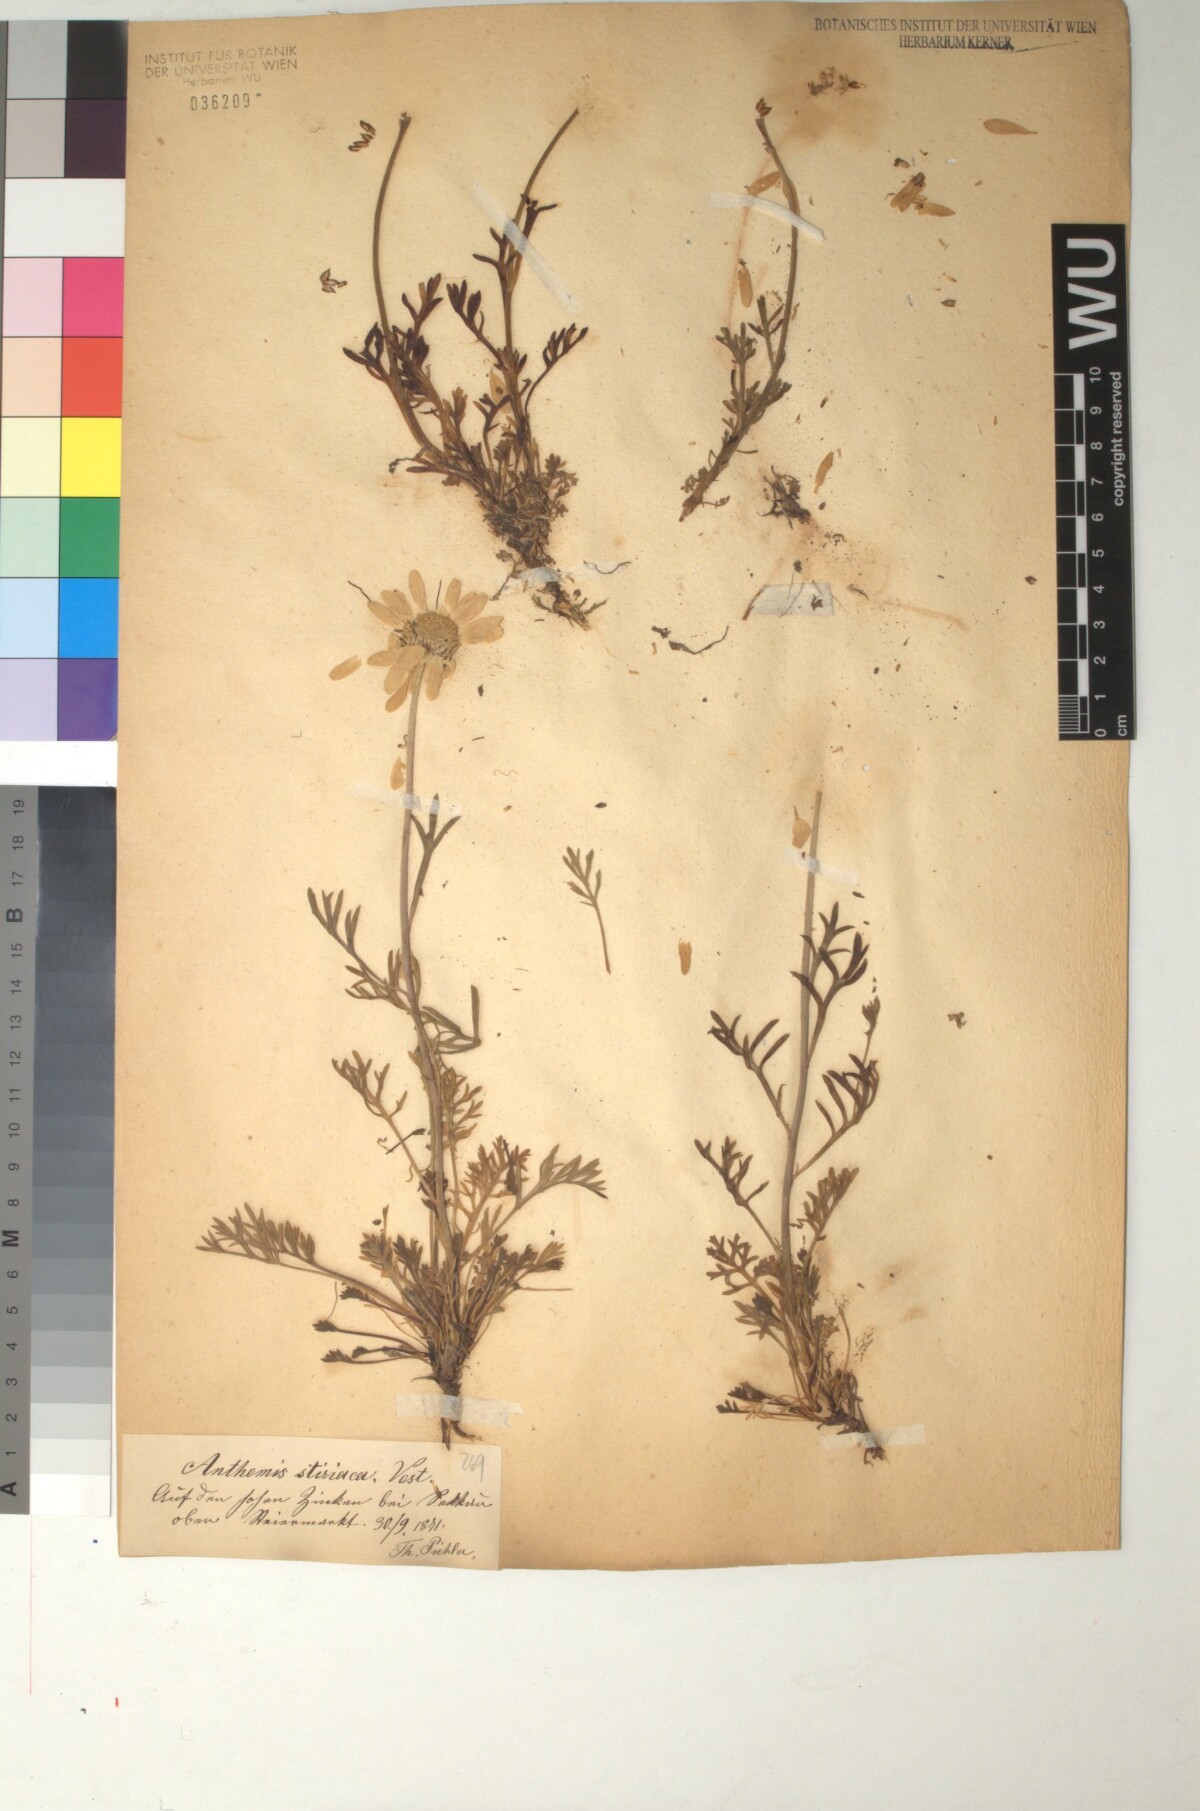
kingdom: Plantae
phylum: Tracheophyta
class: Magnoliopsida
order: Asterales
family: Asteraceae
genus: Anthemis
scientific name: Anthemis cretica
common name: Mountain dog-daisy
